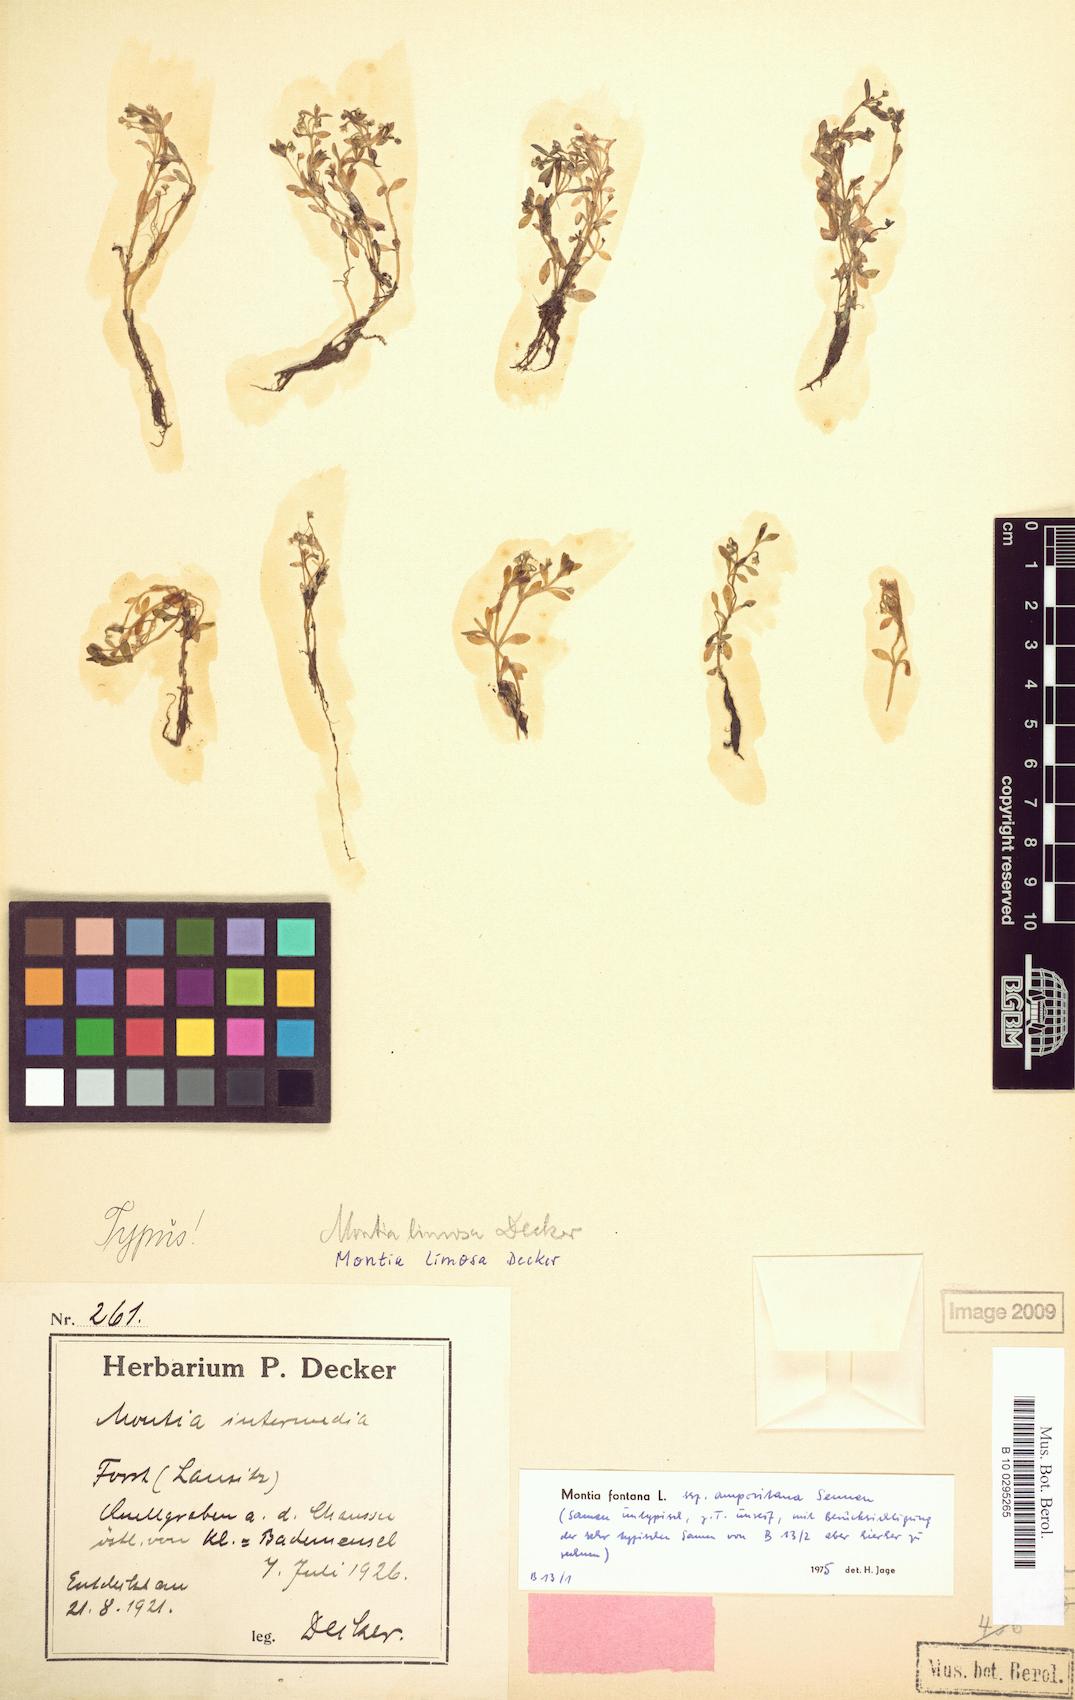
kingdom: Plantae
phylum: Tracheophyta
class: Magnoliopsida
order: Caryophyllales
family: Montiaceae
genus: Montia
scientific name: Montia fontana
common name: Blinks
